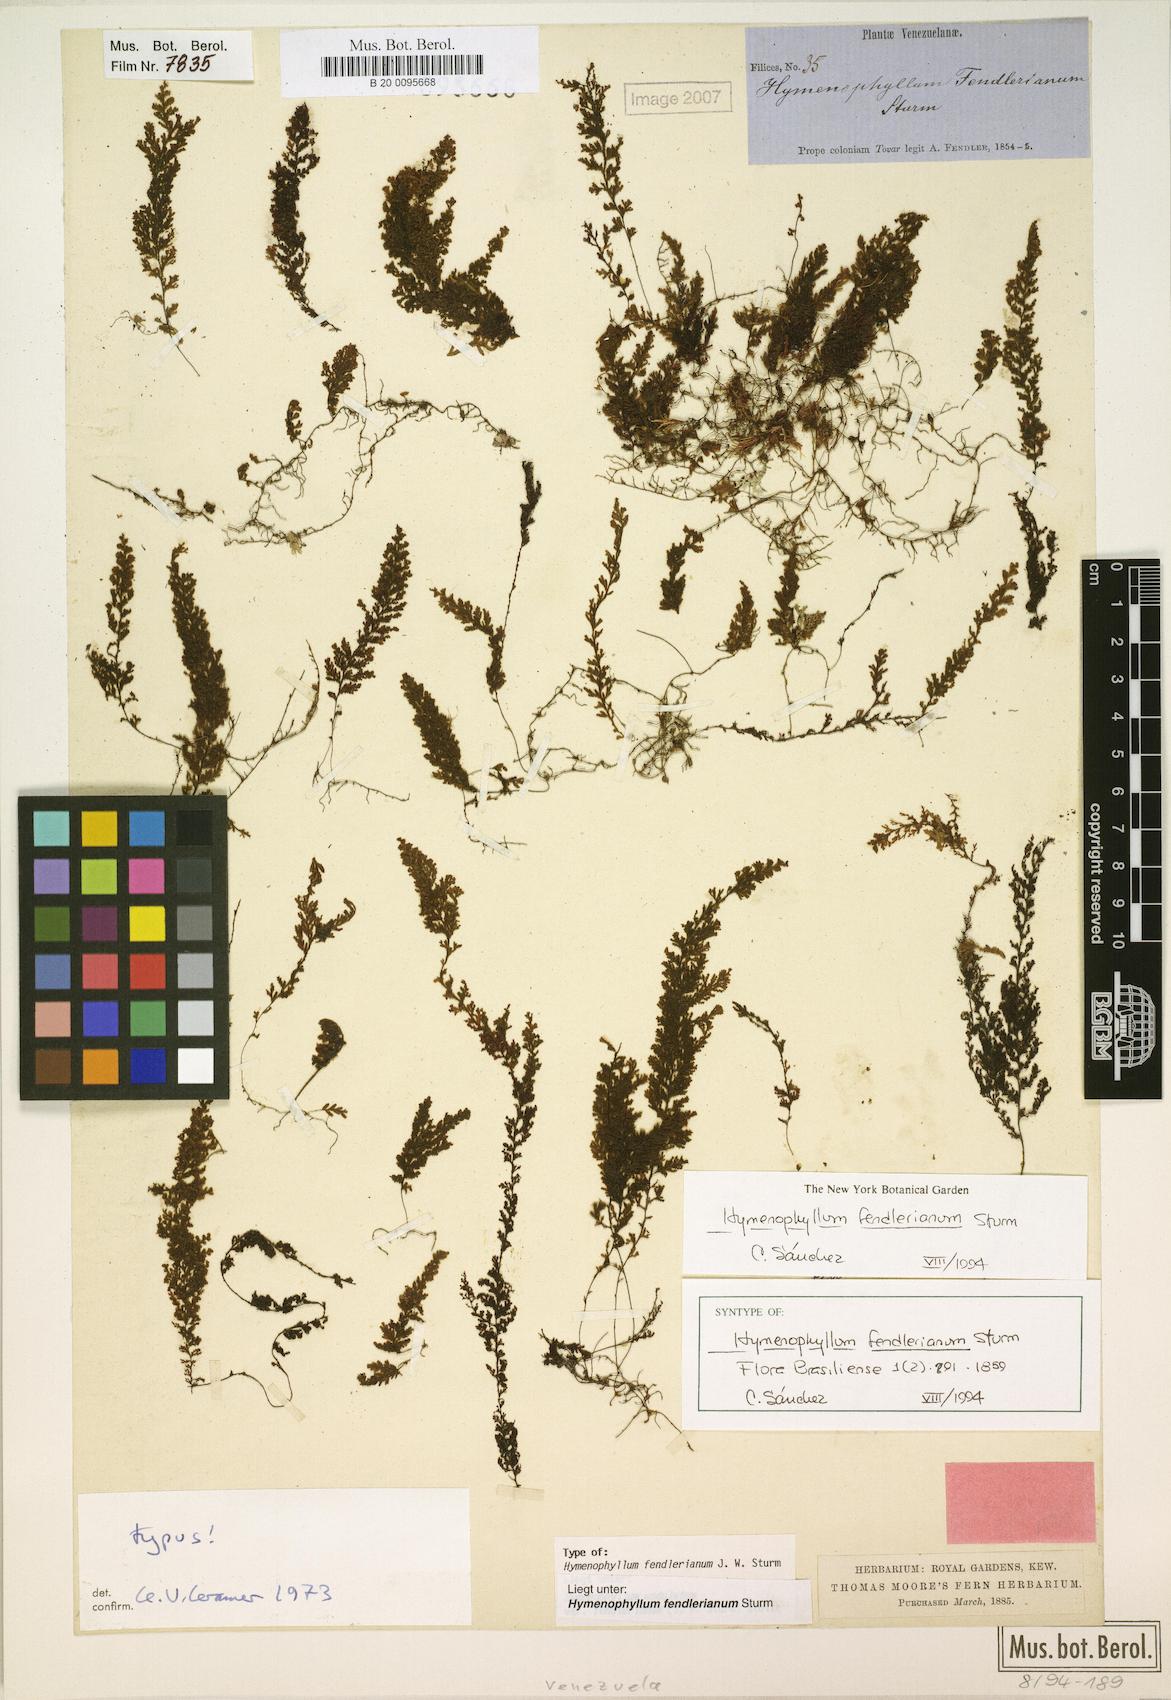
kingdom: Plantae
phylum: Tracheophyta
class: Polypodiopsida
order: Hymenophyllales
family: Hymenophyllaceae
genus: Hymenophyllum
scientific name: Hymenophyllum fendlerianum
